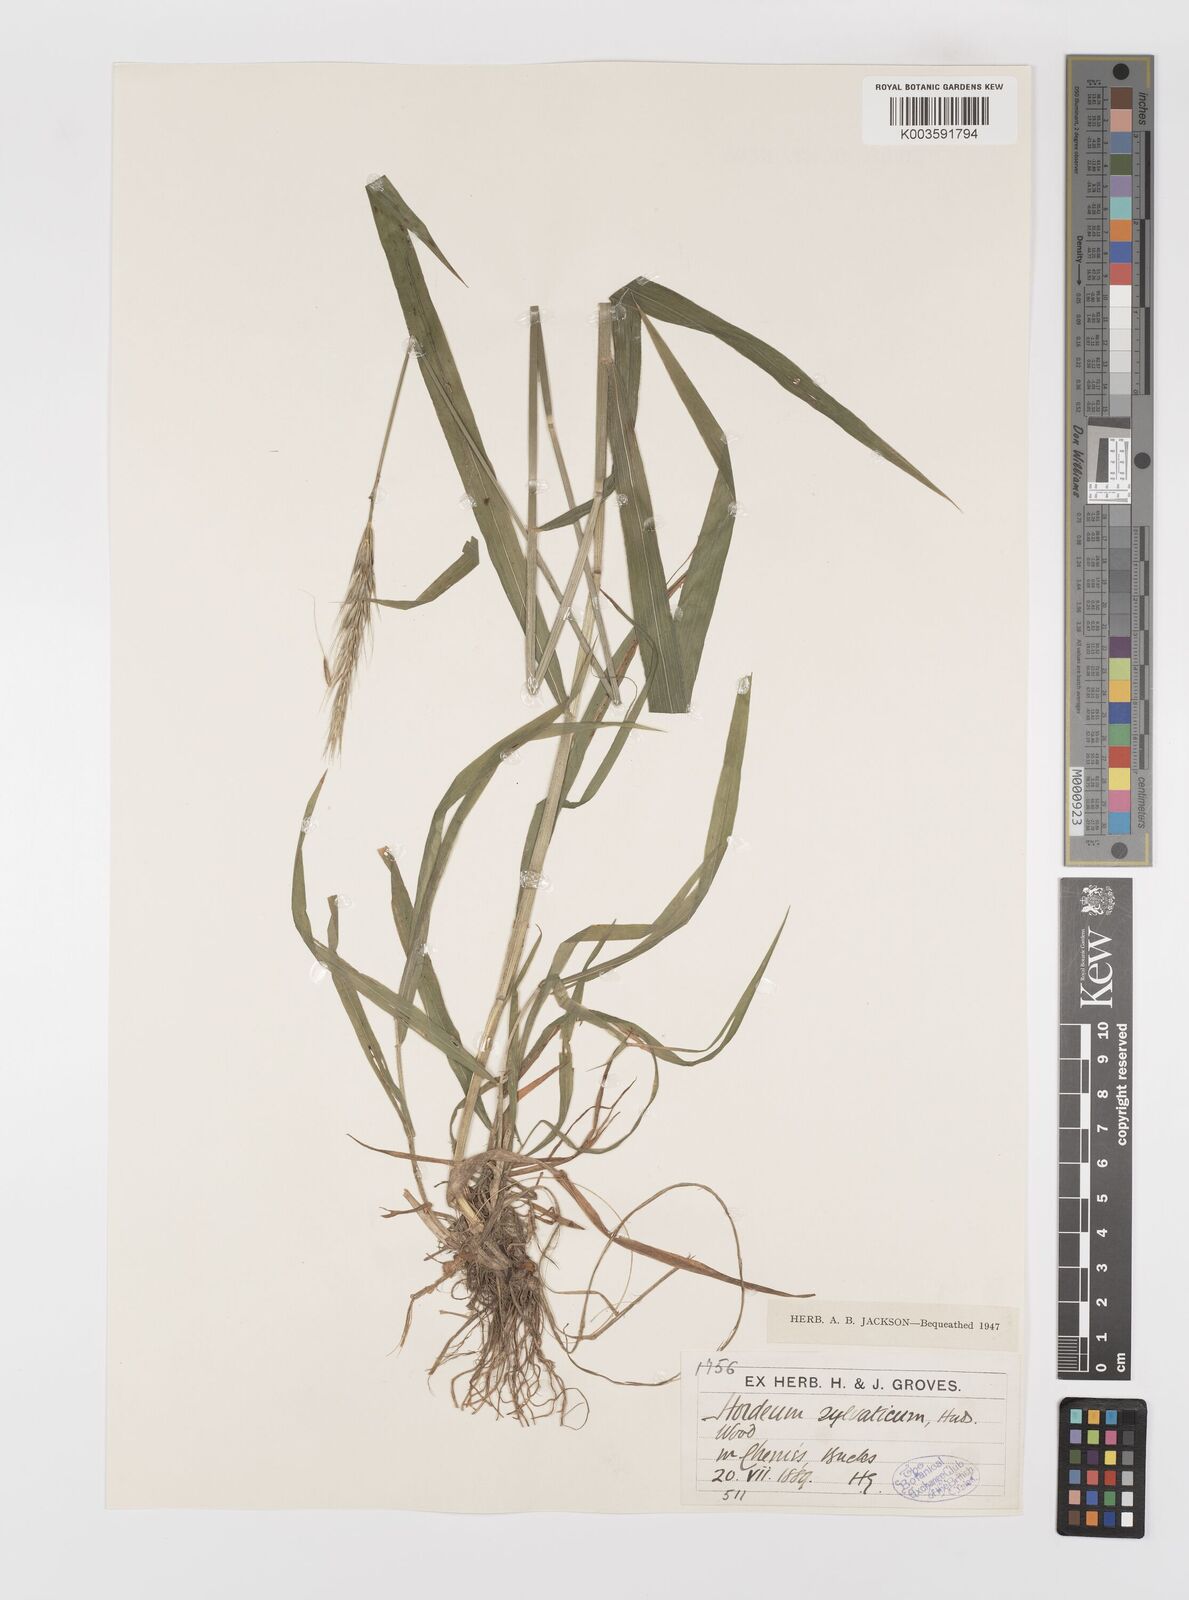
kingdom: Plantae
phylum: Tracheophyta
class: Liliopsida
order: Poales
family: Poaceae
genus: Hordelymus
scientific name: Hordelymus europaeus
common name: Wood-barley
